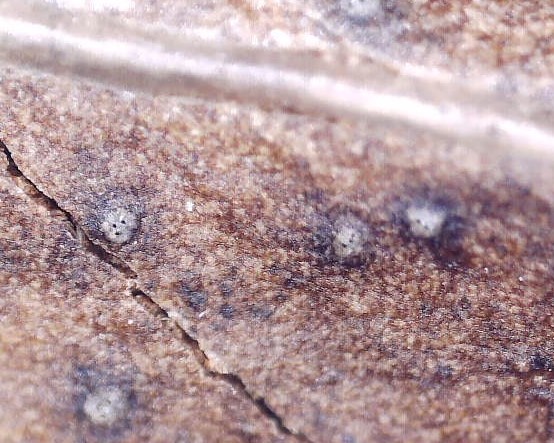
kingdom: Fungi
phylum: Ascomycota
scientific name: Ascomycota
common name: sæksvampe
